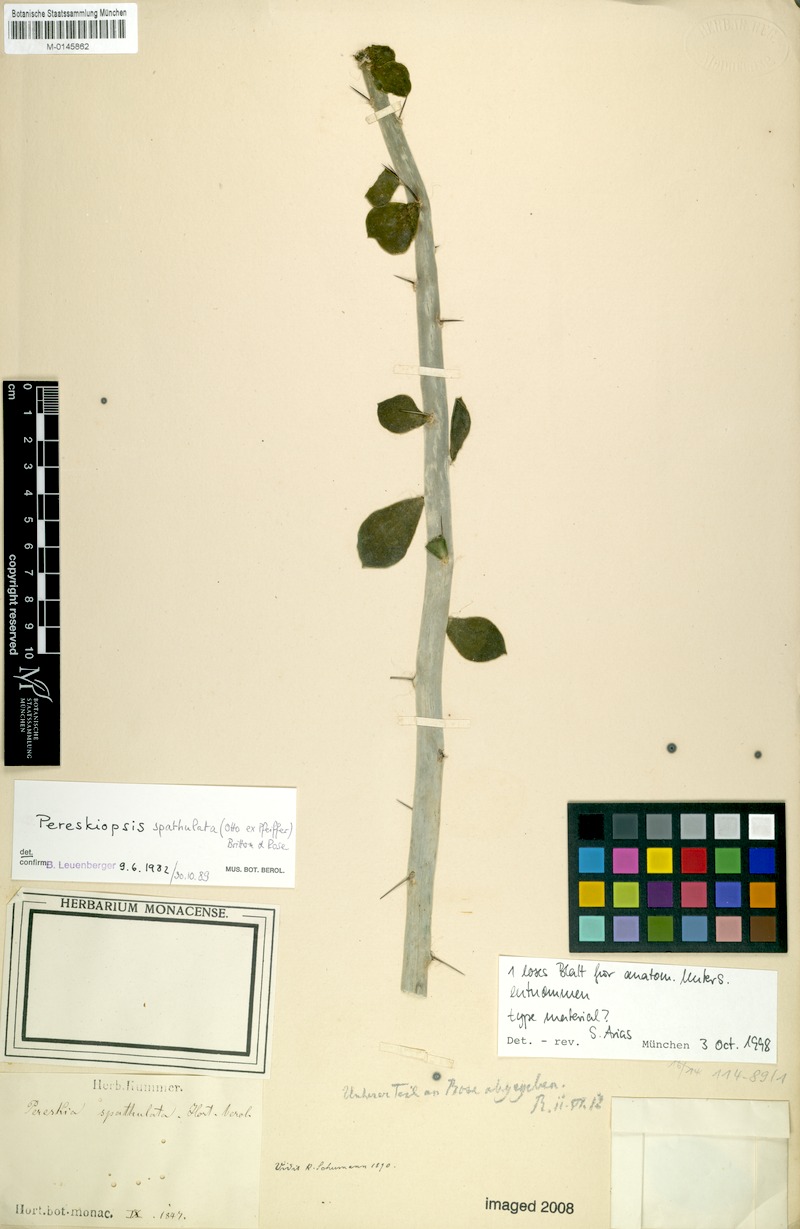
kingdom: Plantae
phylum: Tracheophyta
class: Magnoliopsida
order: Caryophyllales
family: Cactaceae
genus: Pereskiopsis
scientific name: Pereskiopsis diguetii
